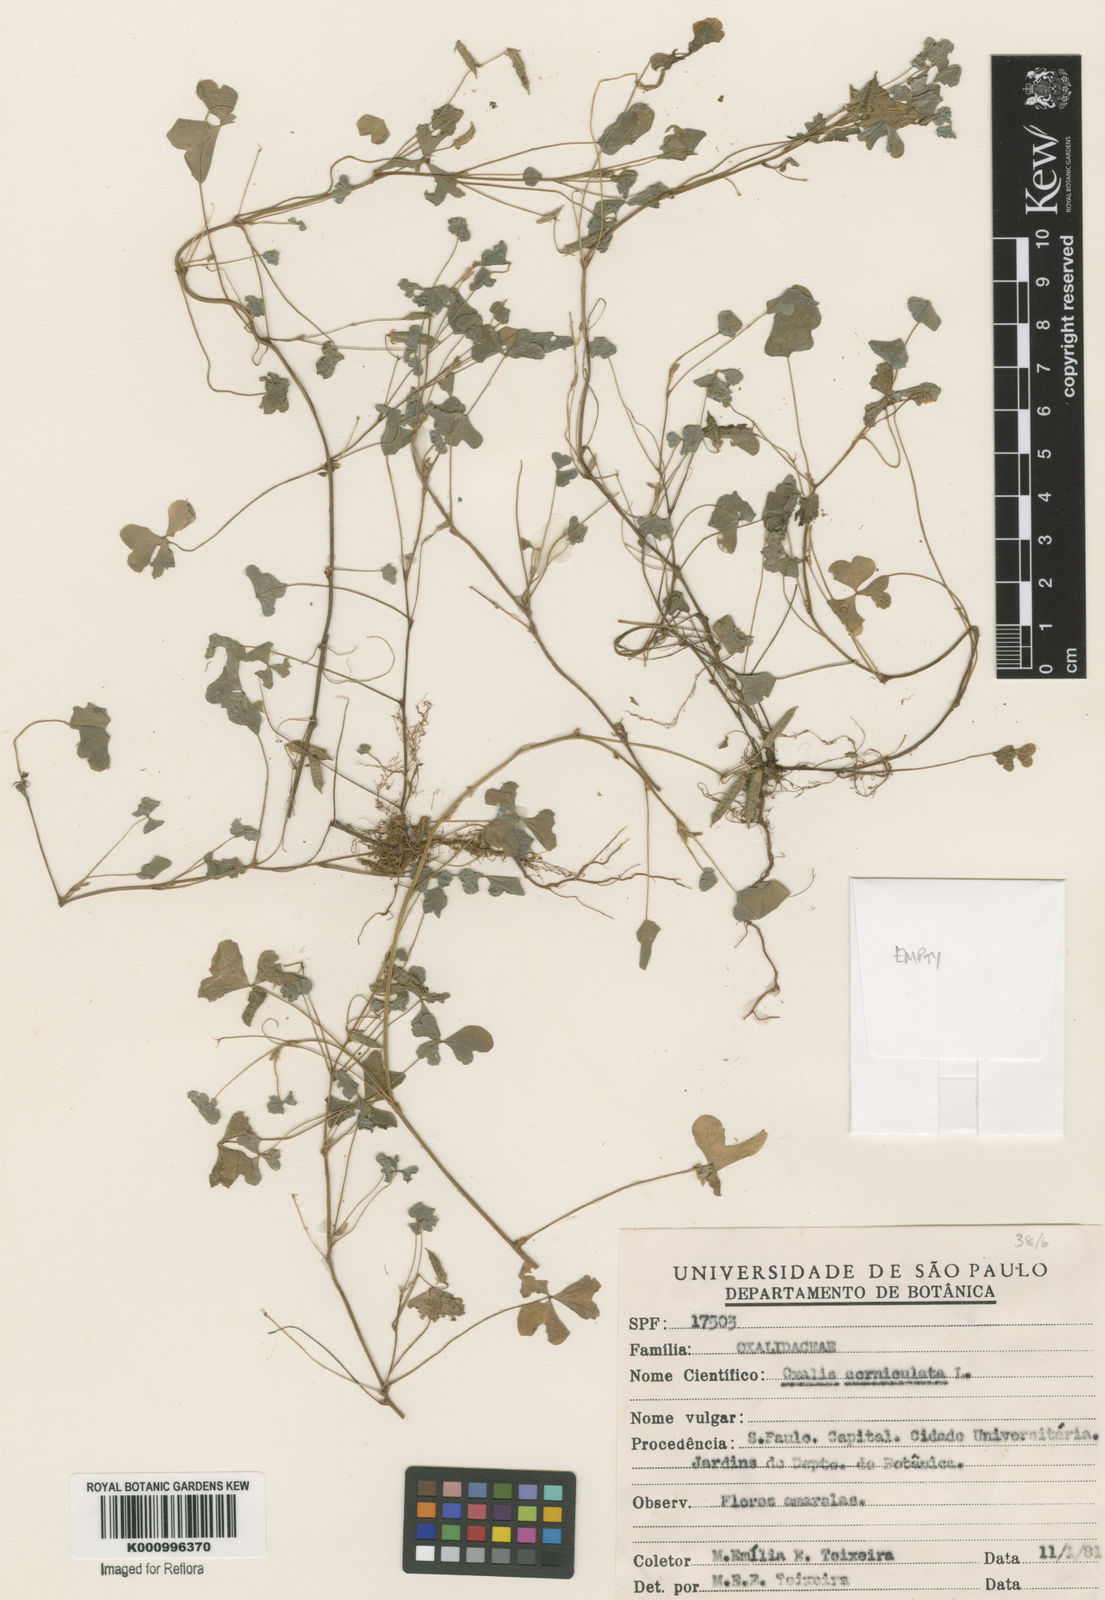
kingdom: Plantae
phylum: Tracheophyta
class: Magnoliopsida
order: Oxalidales
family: Oxalidaceae
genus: Oxalis
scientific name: Oxalis corniculata
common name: Procumbent yellow-sorrel
